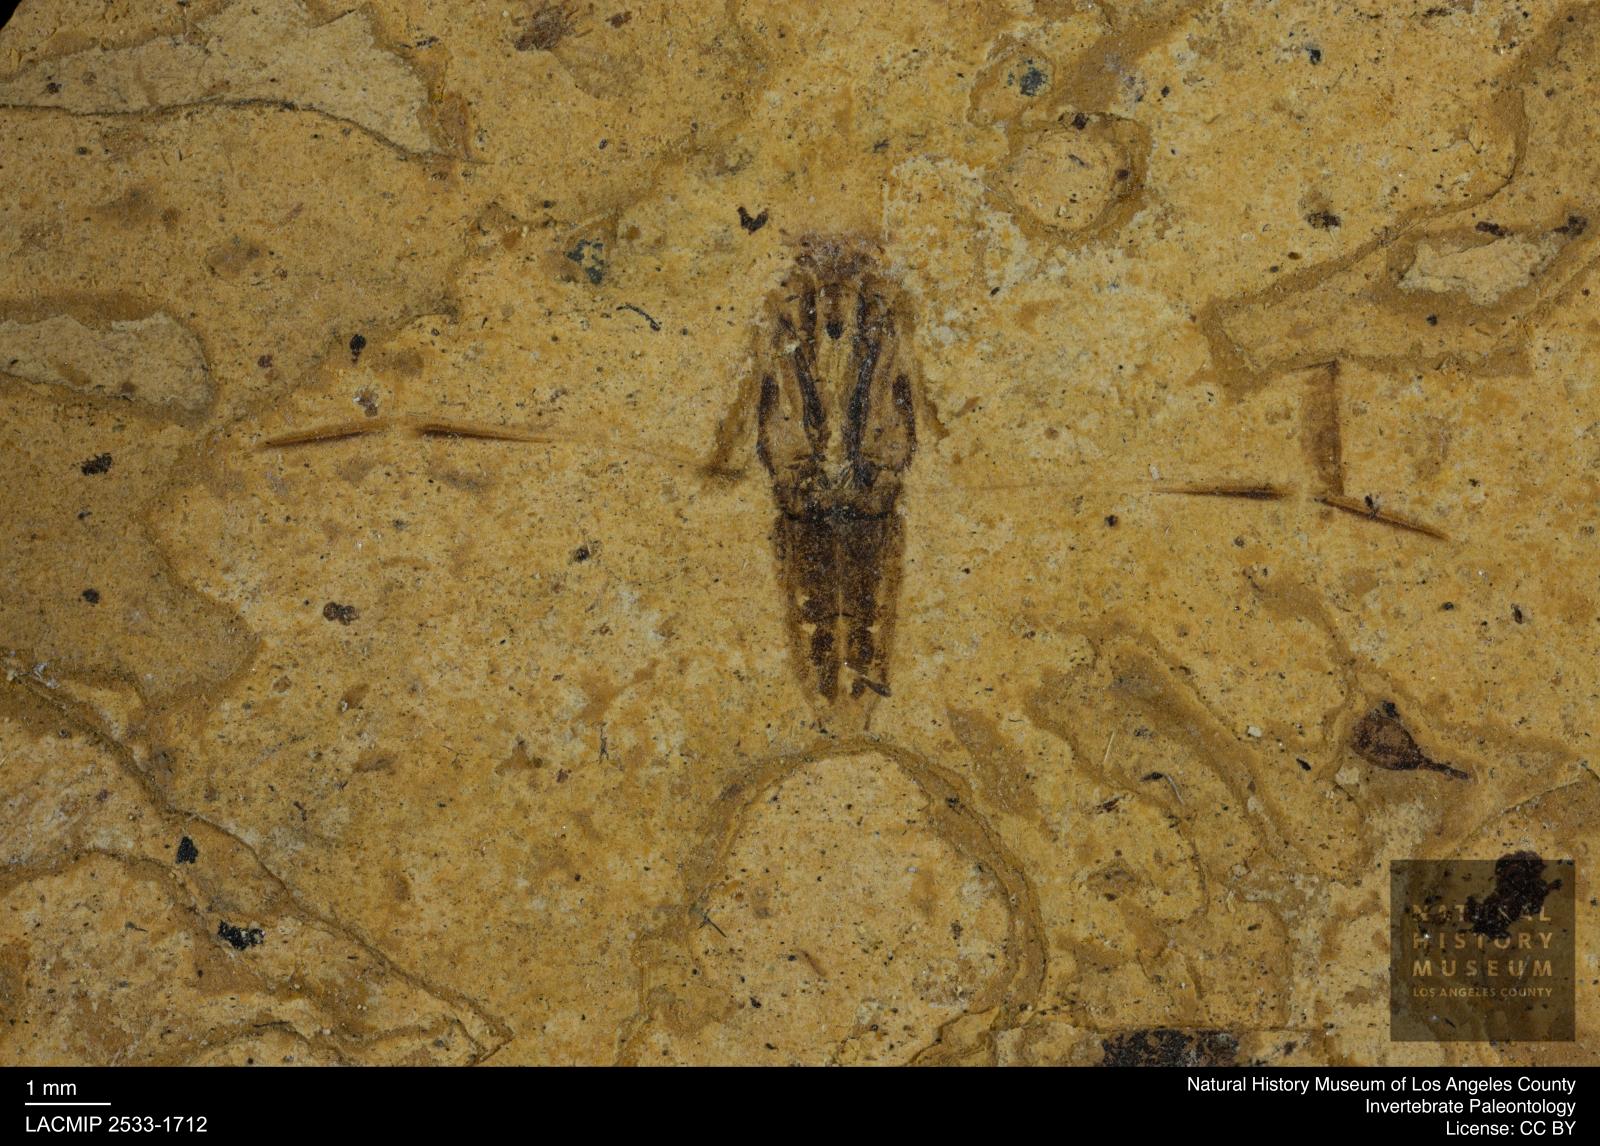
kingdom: Animalia
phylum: Arthropoda
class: Insecta
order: Hemiptera
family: Notonectidae
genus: Notonecta
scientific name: Notonecta
